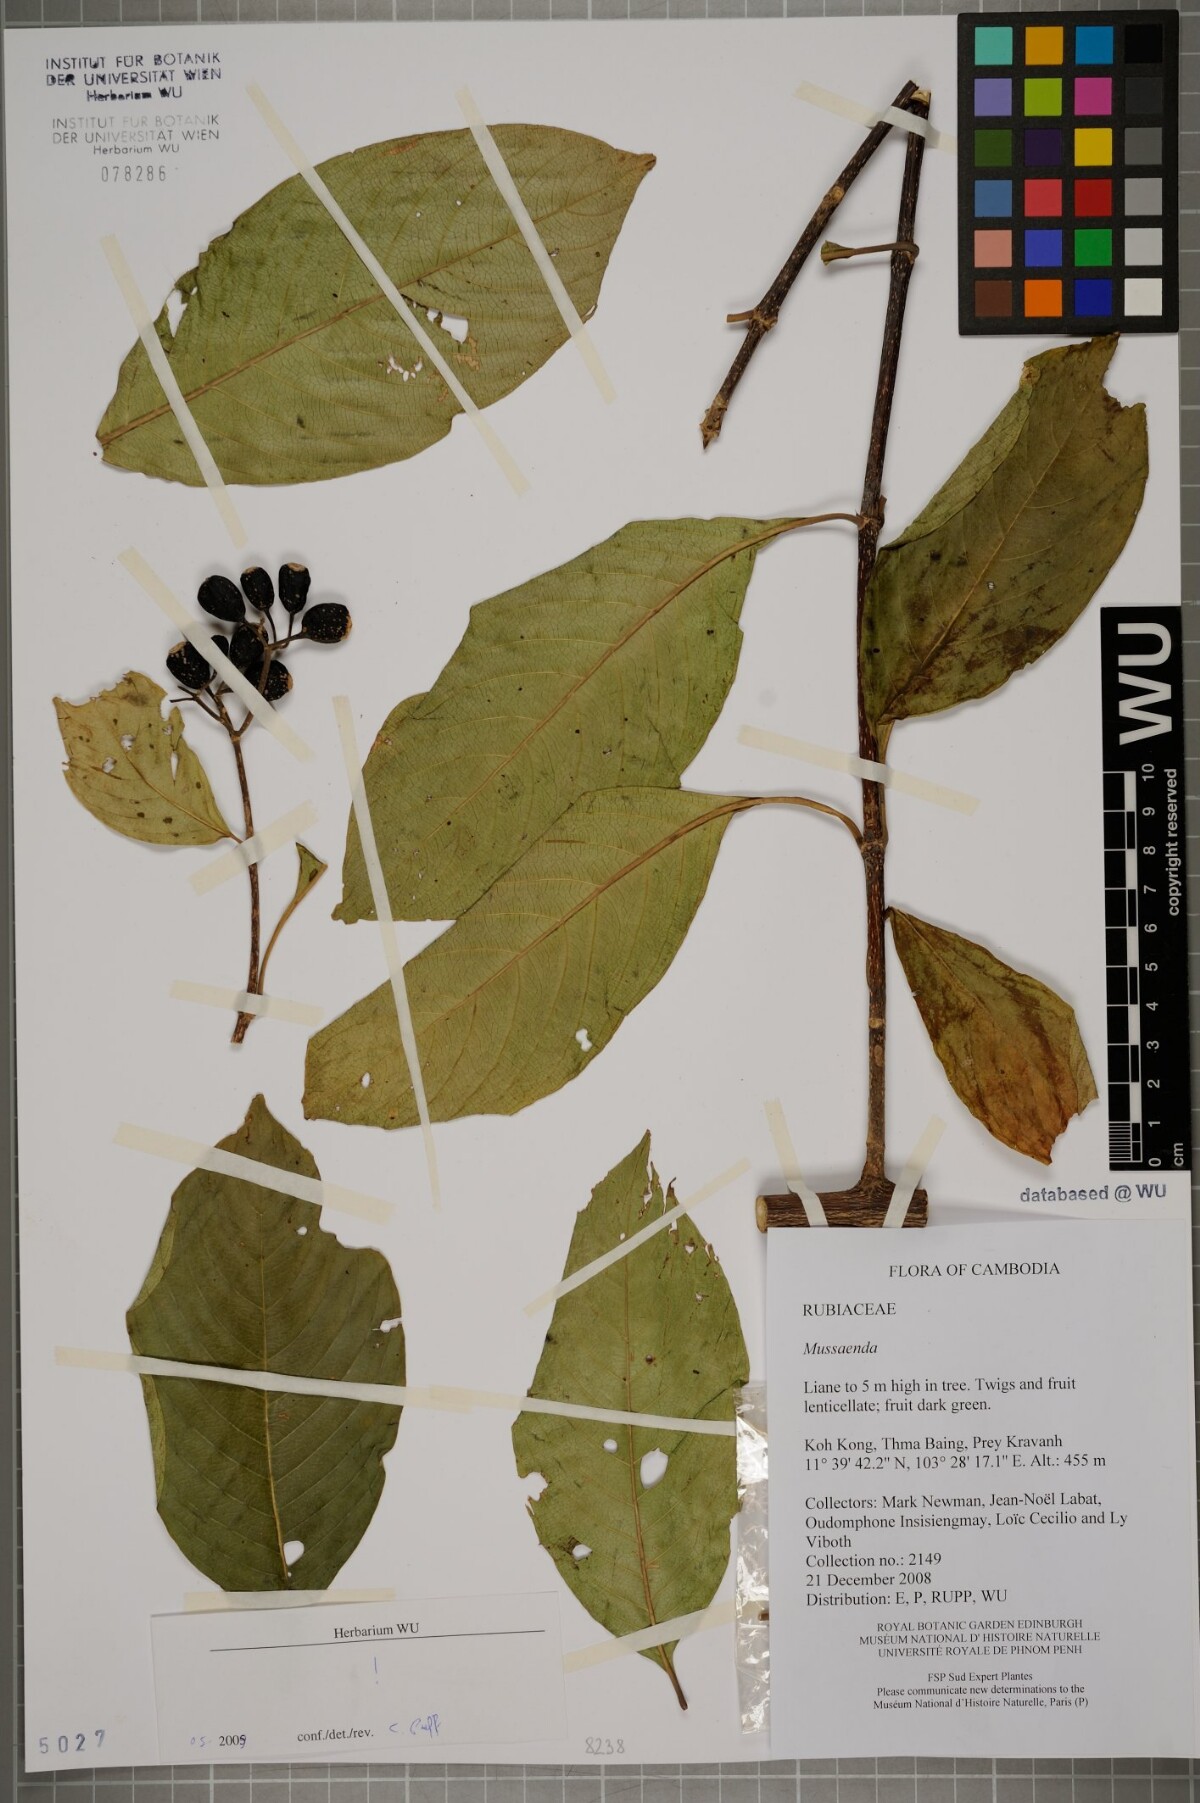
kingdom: Plantae
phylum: Tracheophyta
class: Magnoliopsida
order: Gentianales
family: Rubiaceae
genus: Mussaenda
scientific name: Mussaenda
